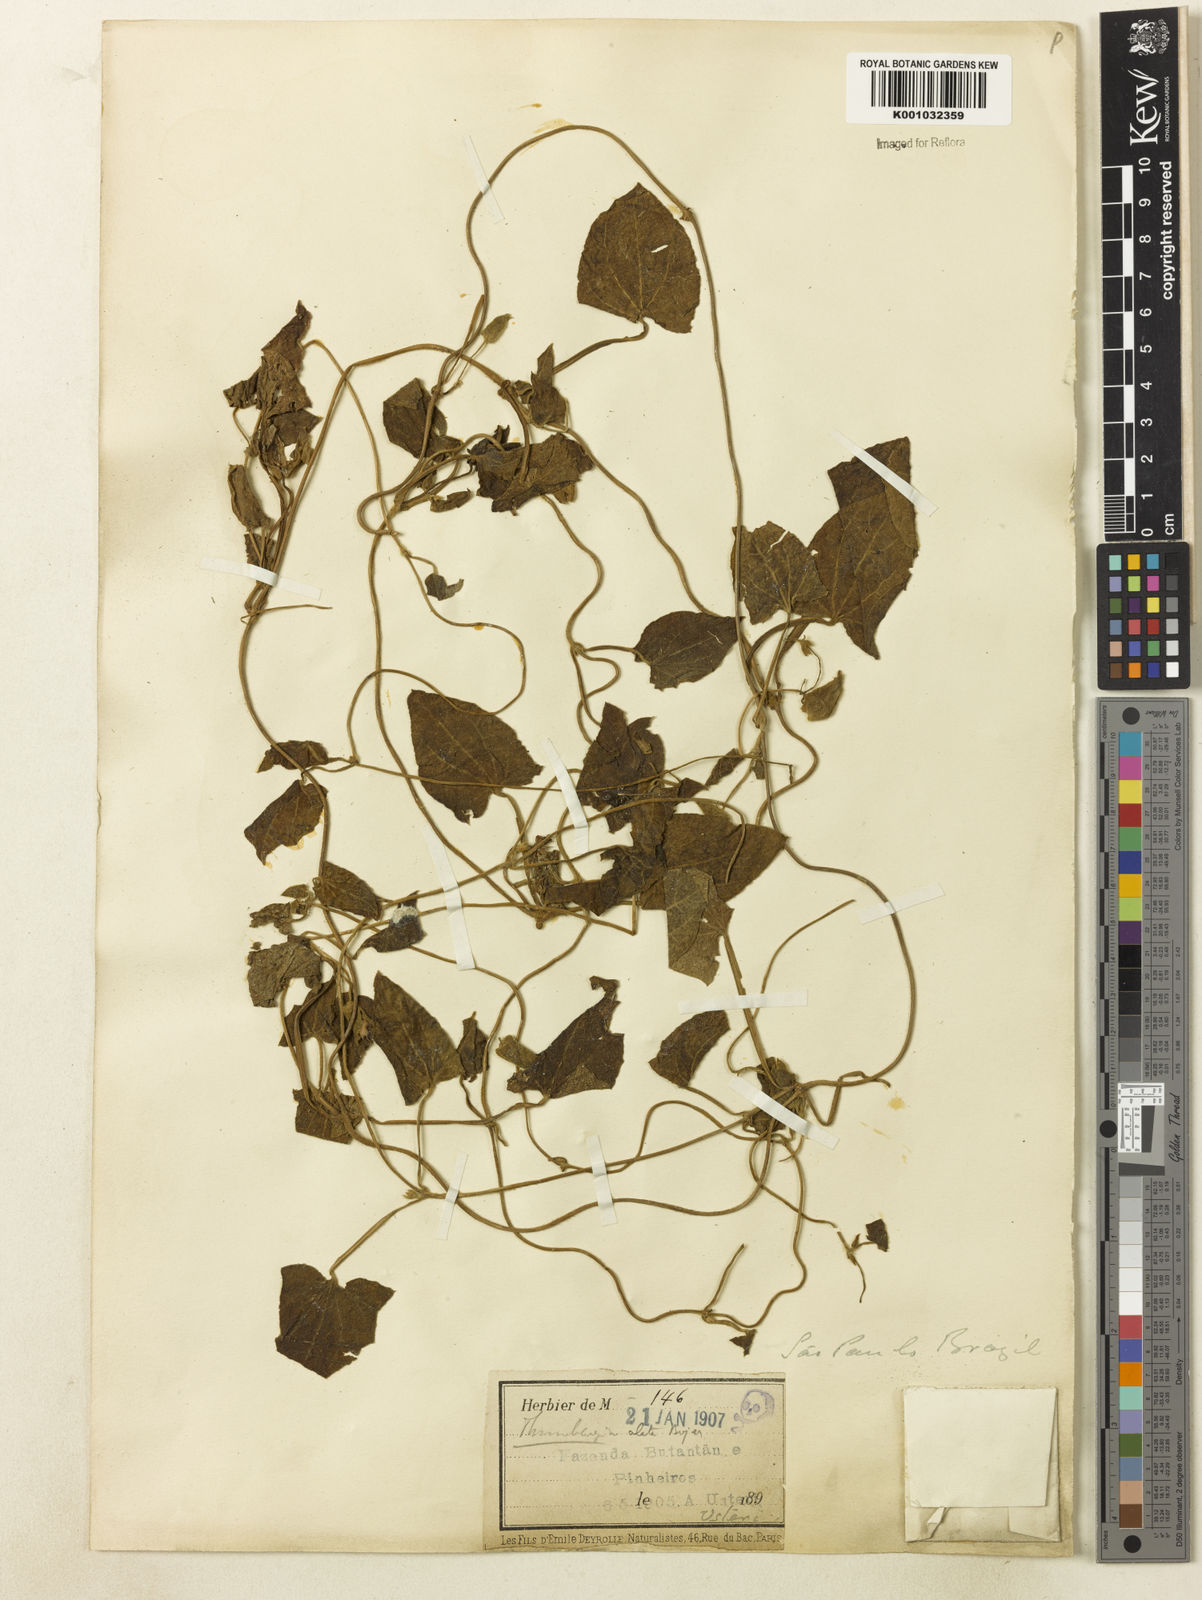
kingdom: Plantae
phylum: Tracheophyta
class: Magnoliopsida
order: Lamiales
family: Acanthaceae
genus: Thunbergia
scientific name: Thunbergia alata
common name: Blackeyed susan vine
